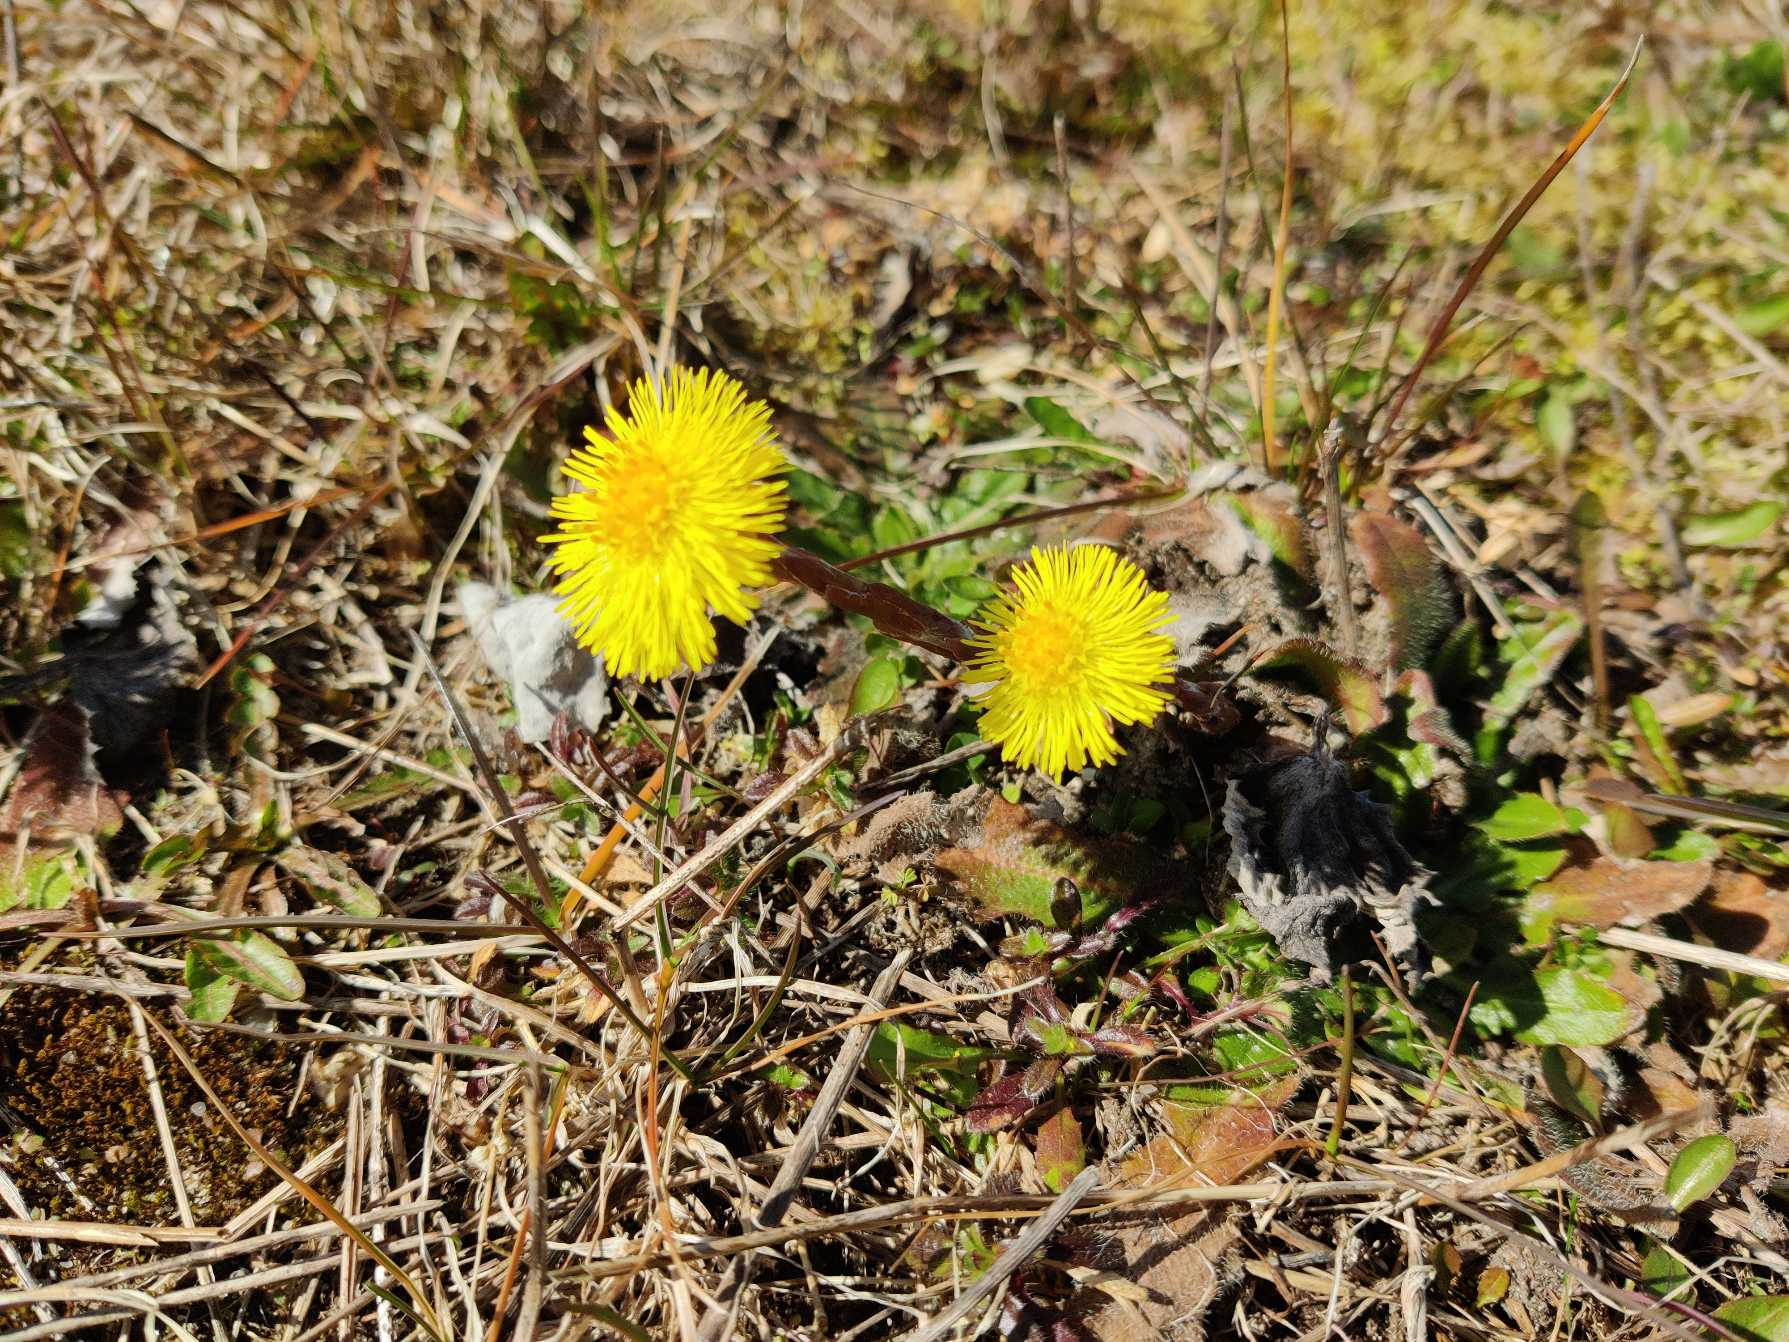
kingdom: Plantae
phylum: Tracheophyta
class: Magnoliopsida
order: Asterales
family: Asteraceae
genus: Tussilago
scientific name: Tussilago farfara
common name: Følfod
